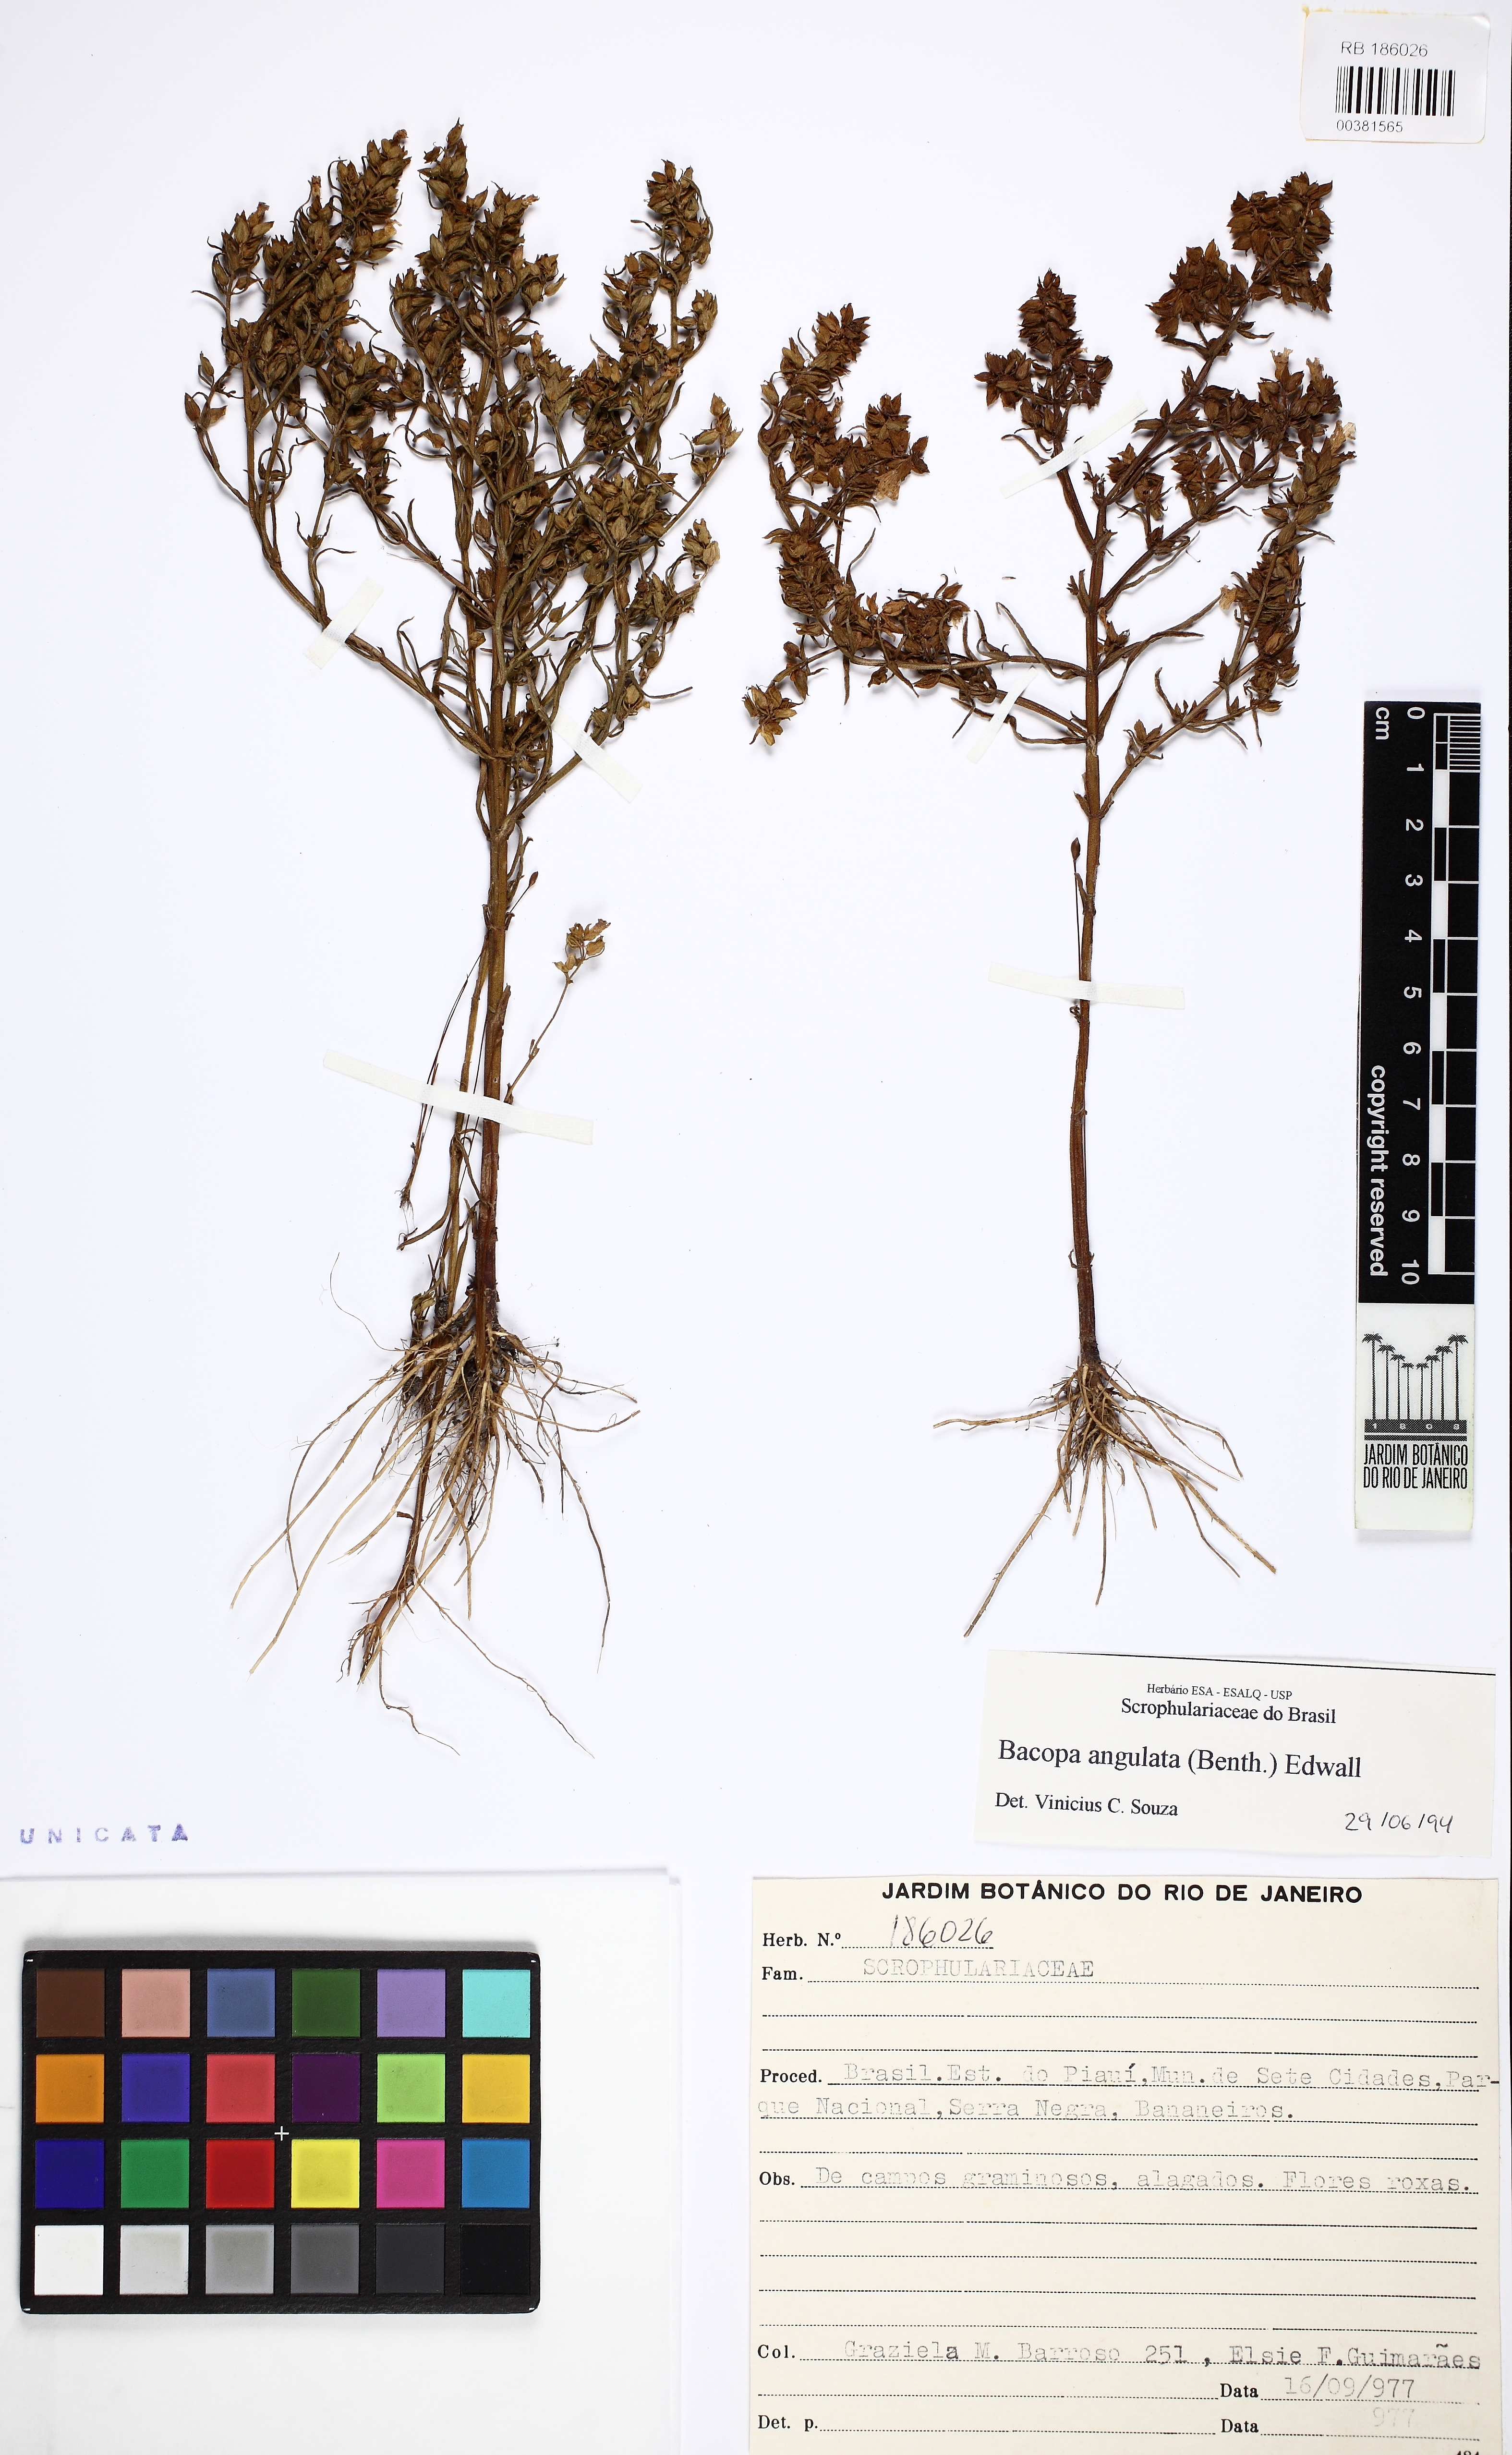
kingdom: Plantae
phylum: Tracheophyta
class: Magnoliopsida
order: Lamiales
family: Plantaginaceae
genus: Bacopa
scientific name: Bacopa angulata
